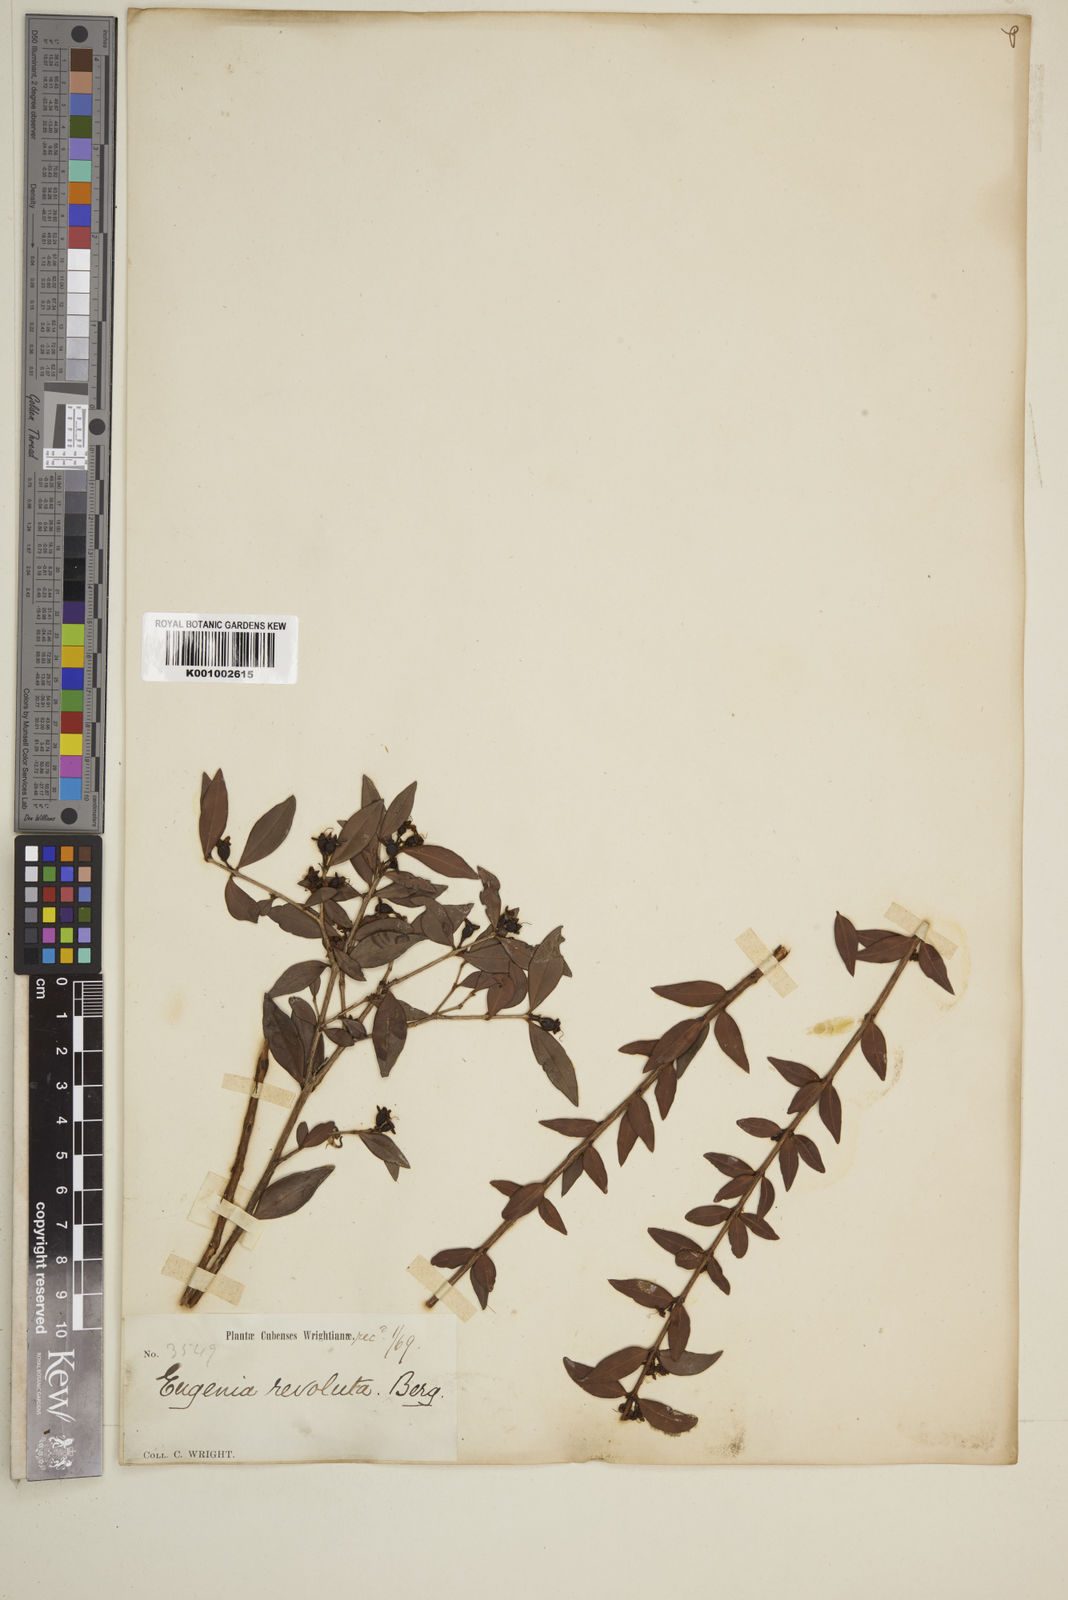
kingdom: Plantae
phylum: Tracheophyta
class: Magnoliopsida
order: Myrtales
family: Myrtaceae
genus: Eugenia
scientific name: Eugenia oxysepala
